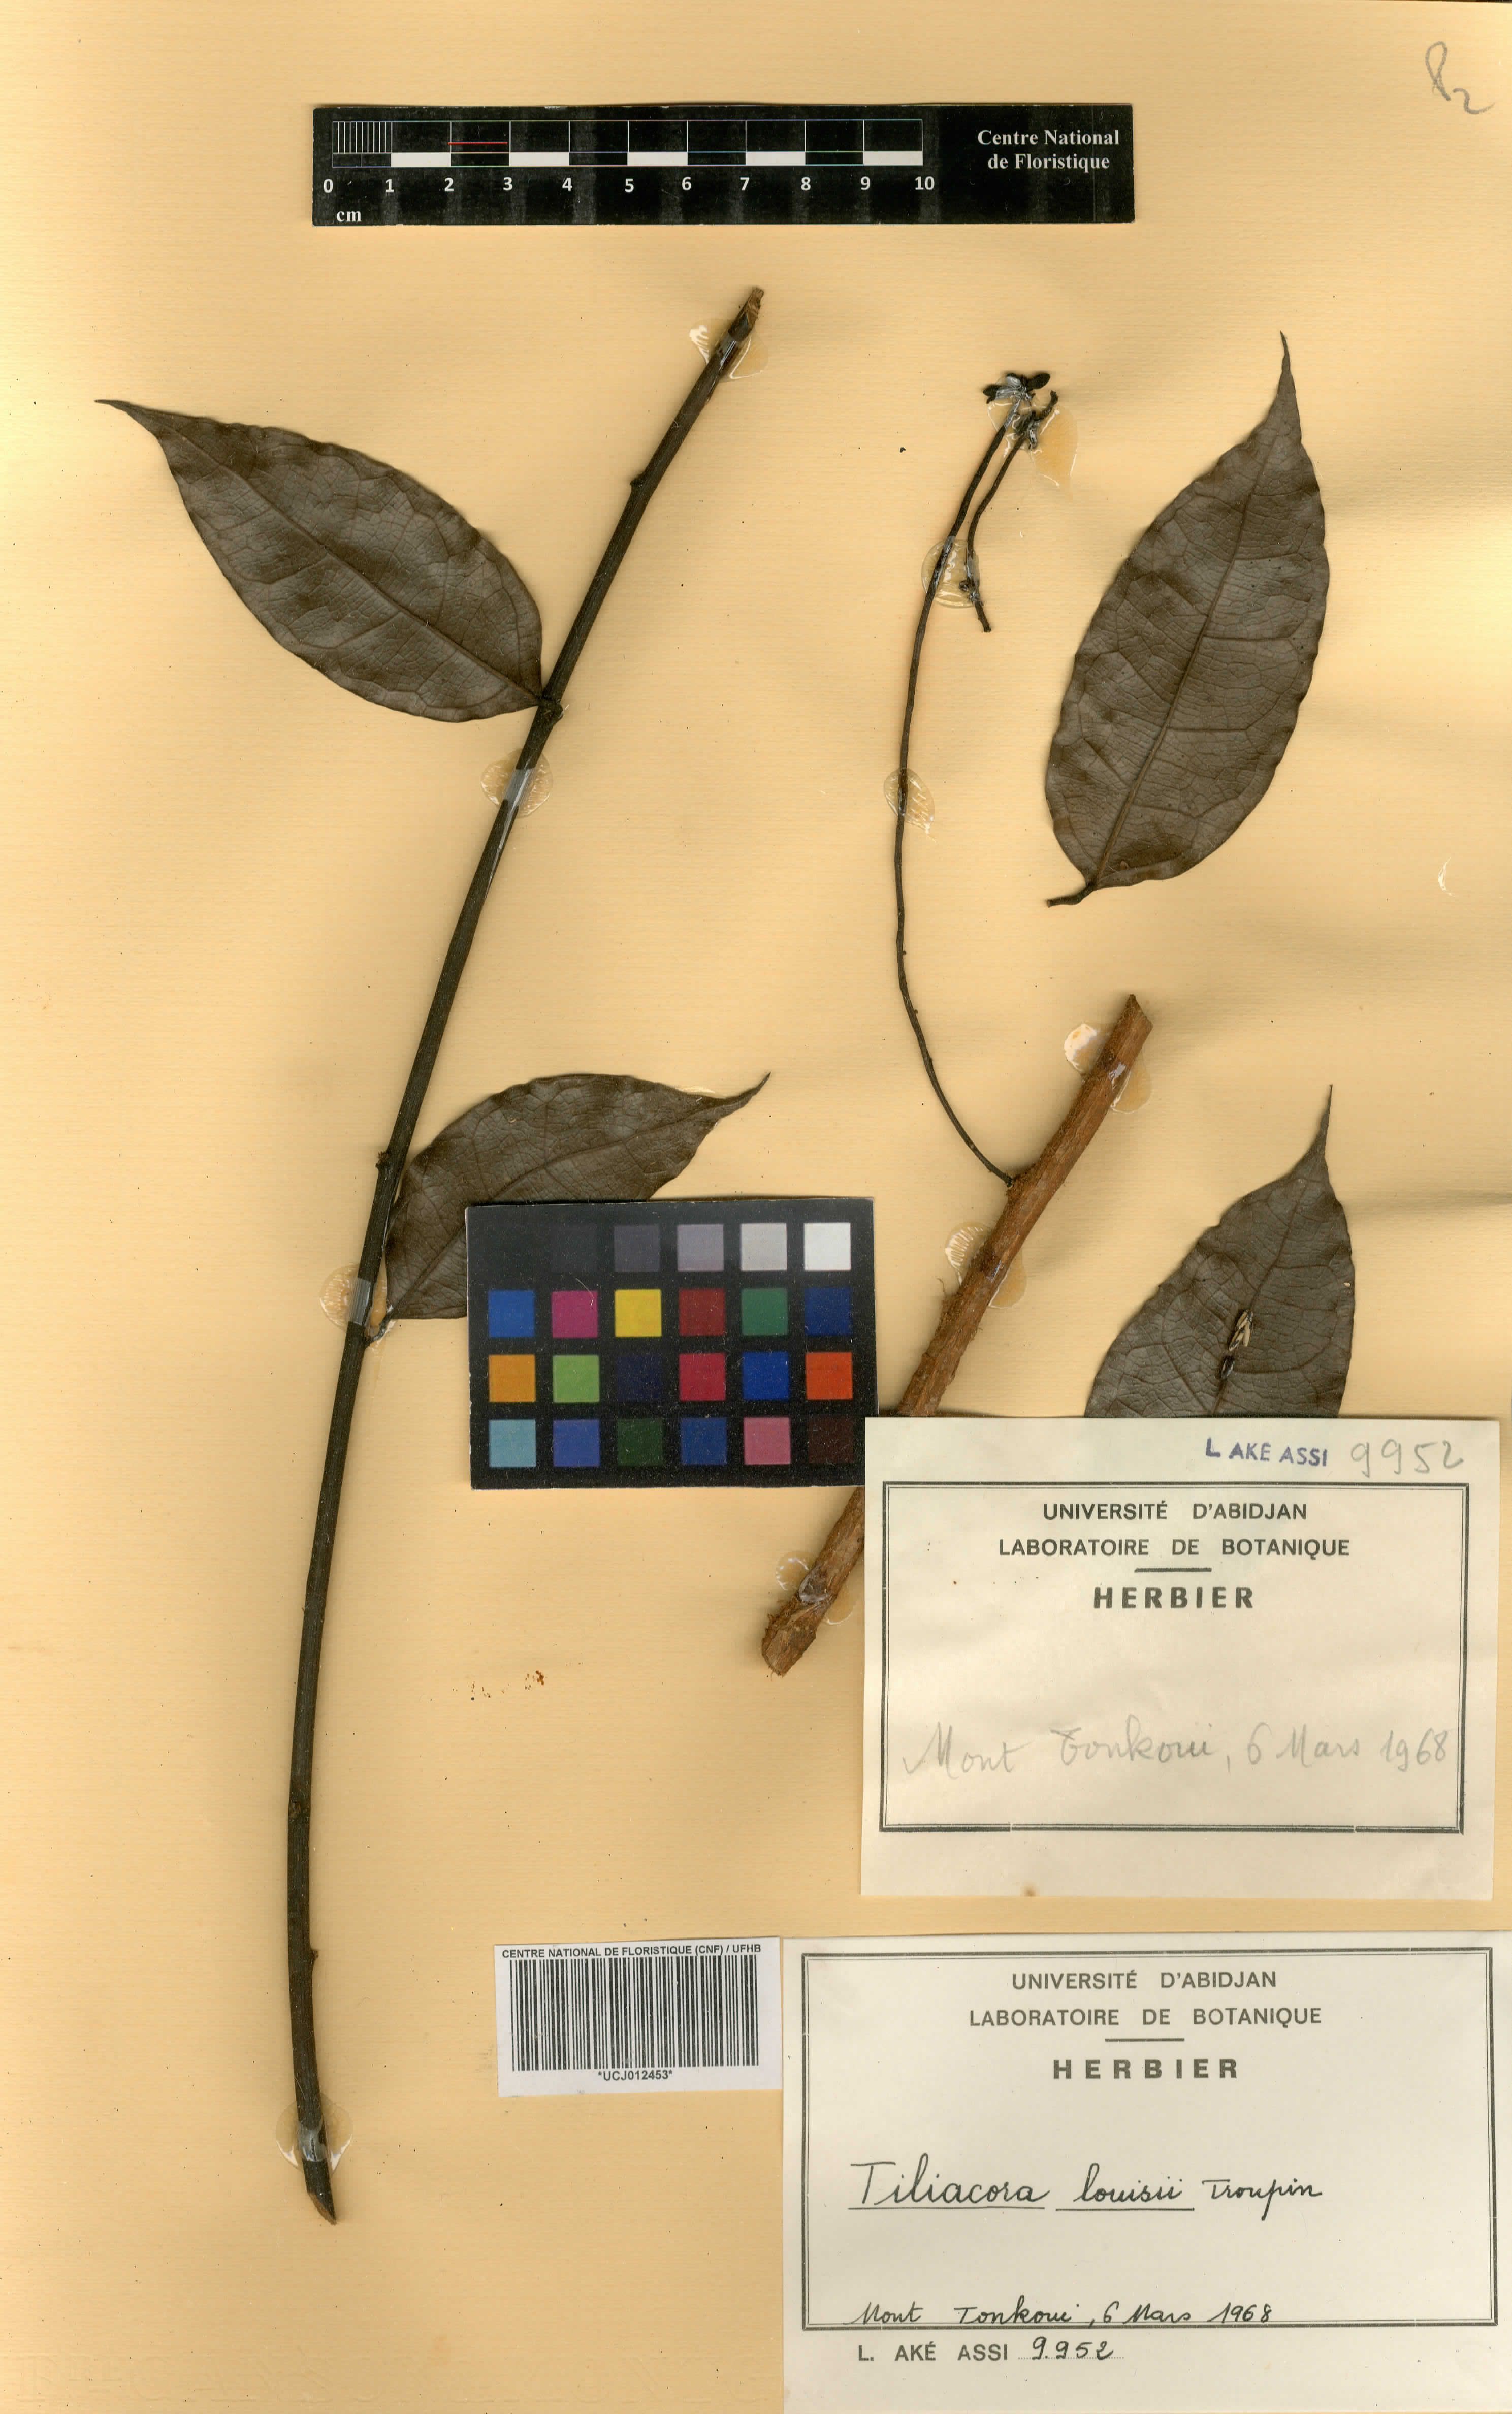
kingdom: Plantae
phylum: Tracheophyta
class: Magnoliopsida
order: Ranunculales
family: Menispermaceae
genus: Tiliacora
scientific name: Tiliacora louisii
